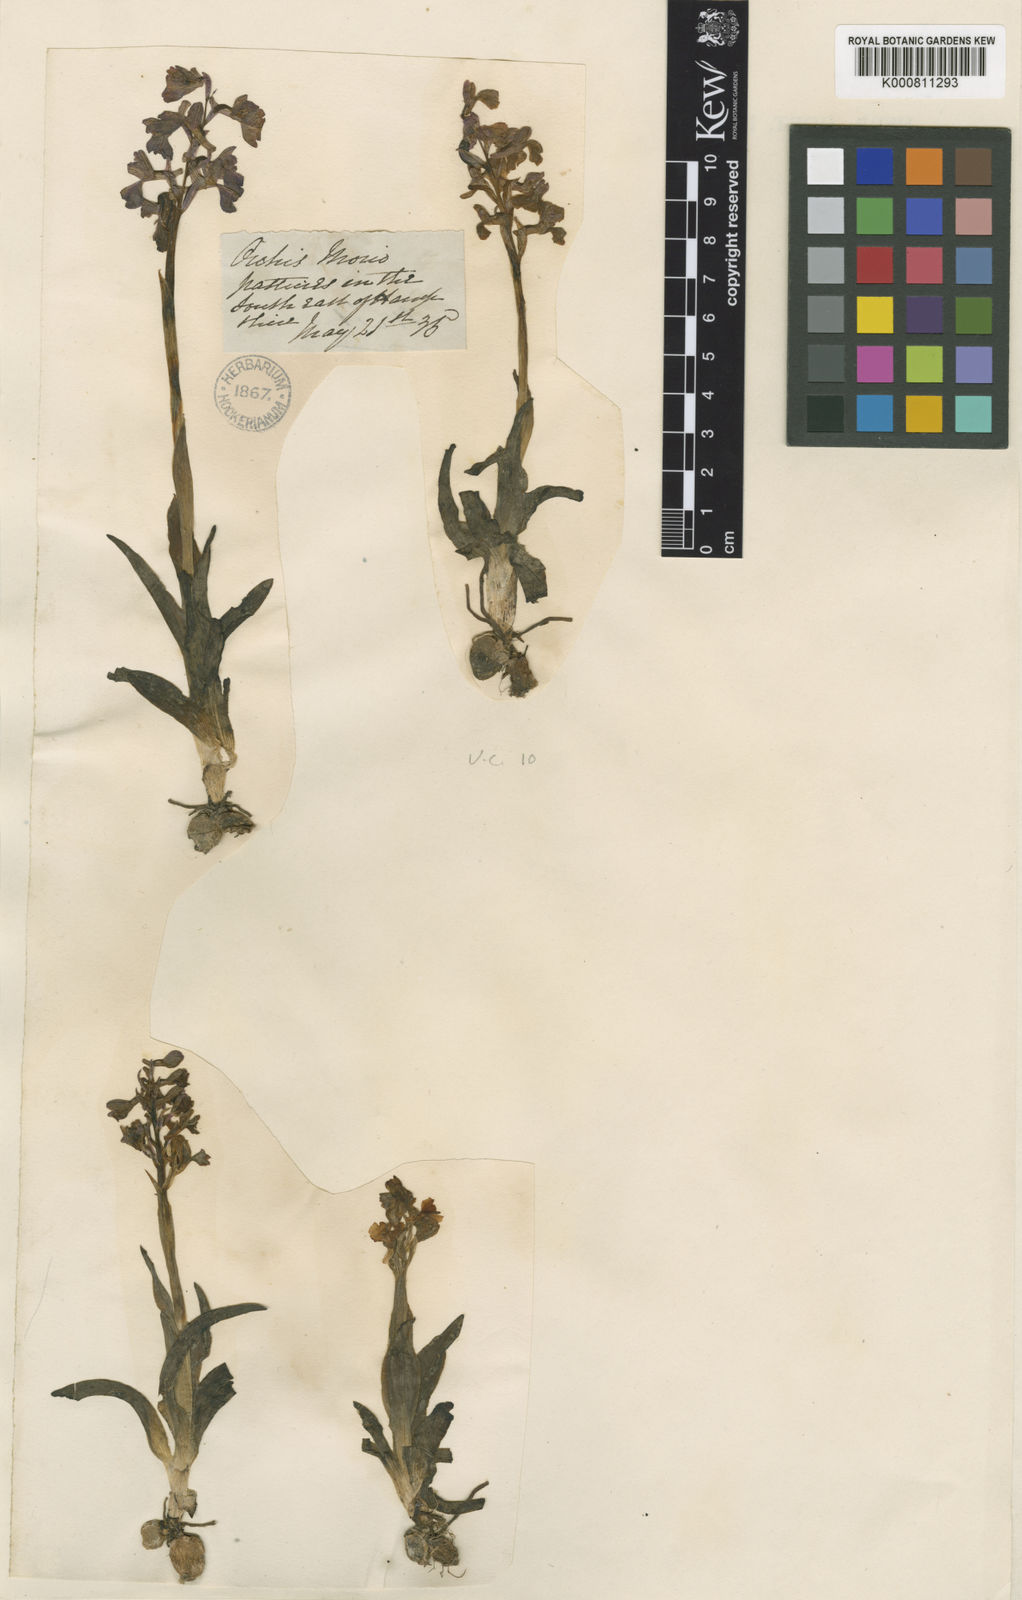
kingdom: Plantae
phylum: Tracheophyta
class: Liliopsida
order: Asparagales
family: Orchidaceae
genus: Anacamptis
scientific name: Anacamptis morio
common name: Green-winged orchid
